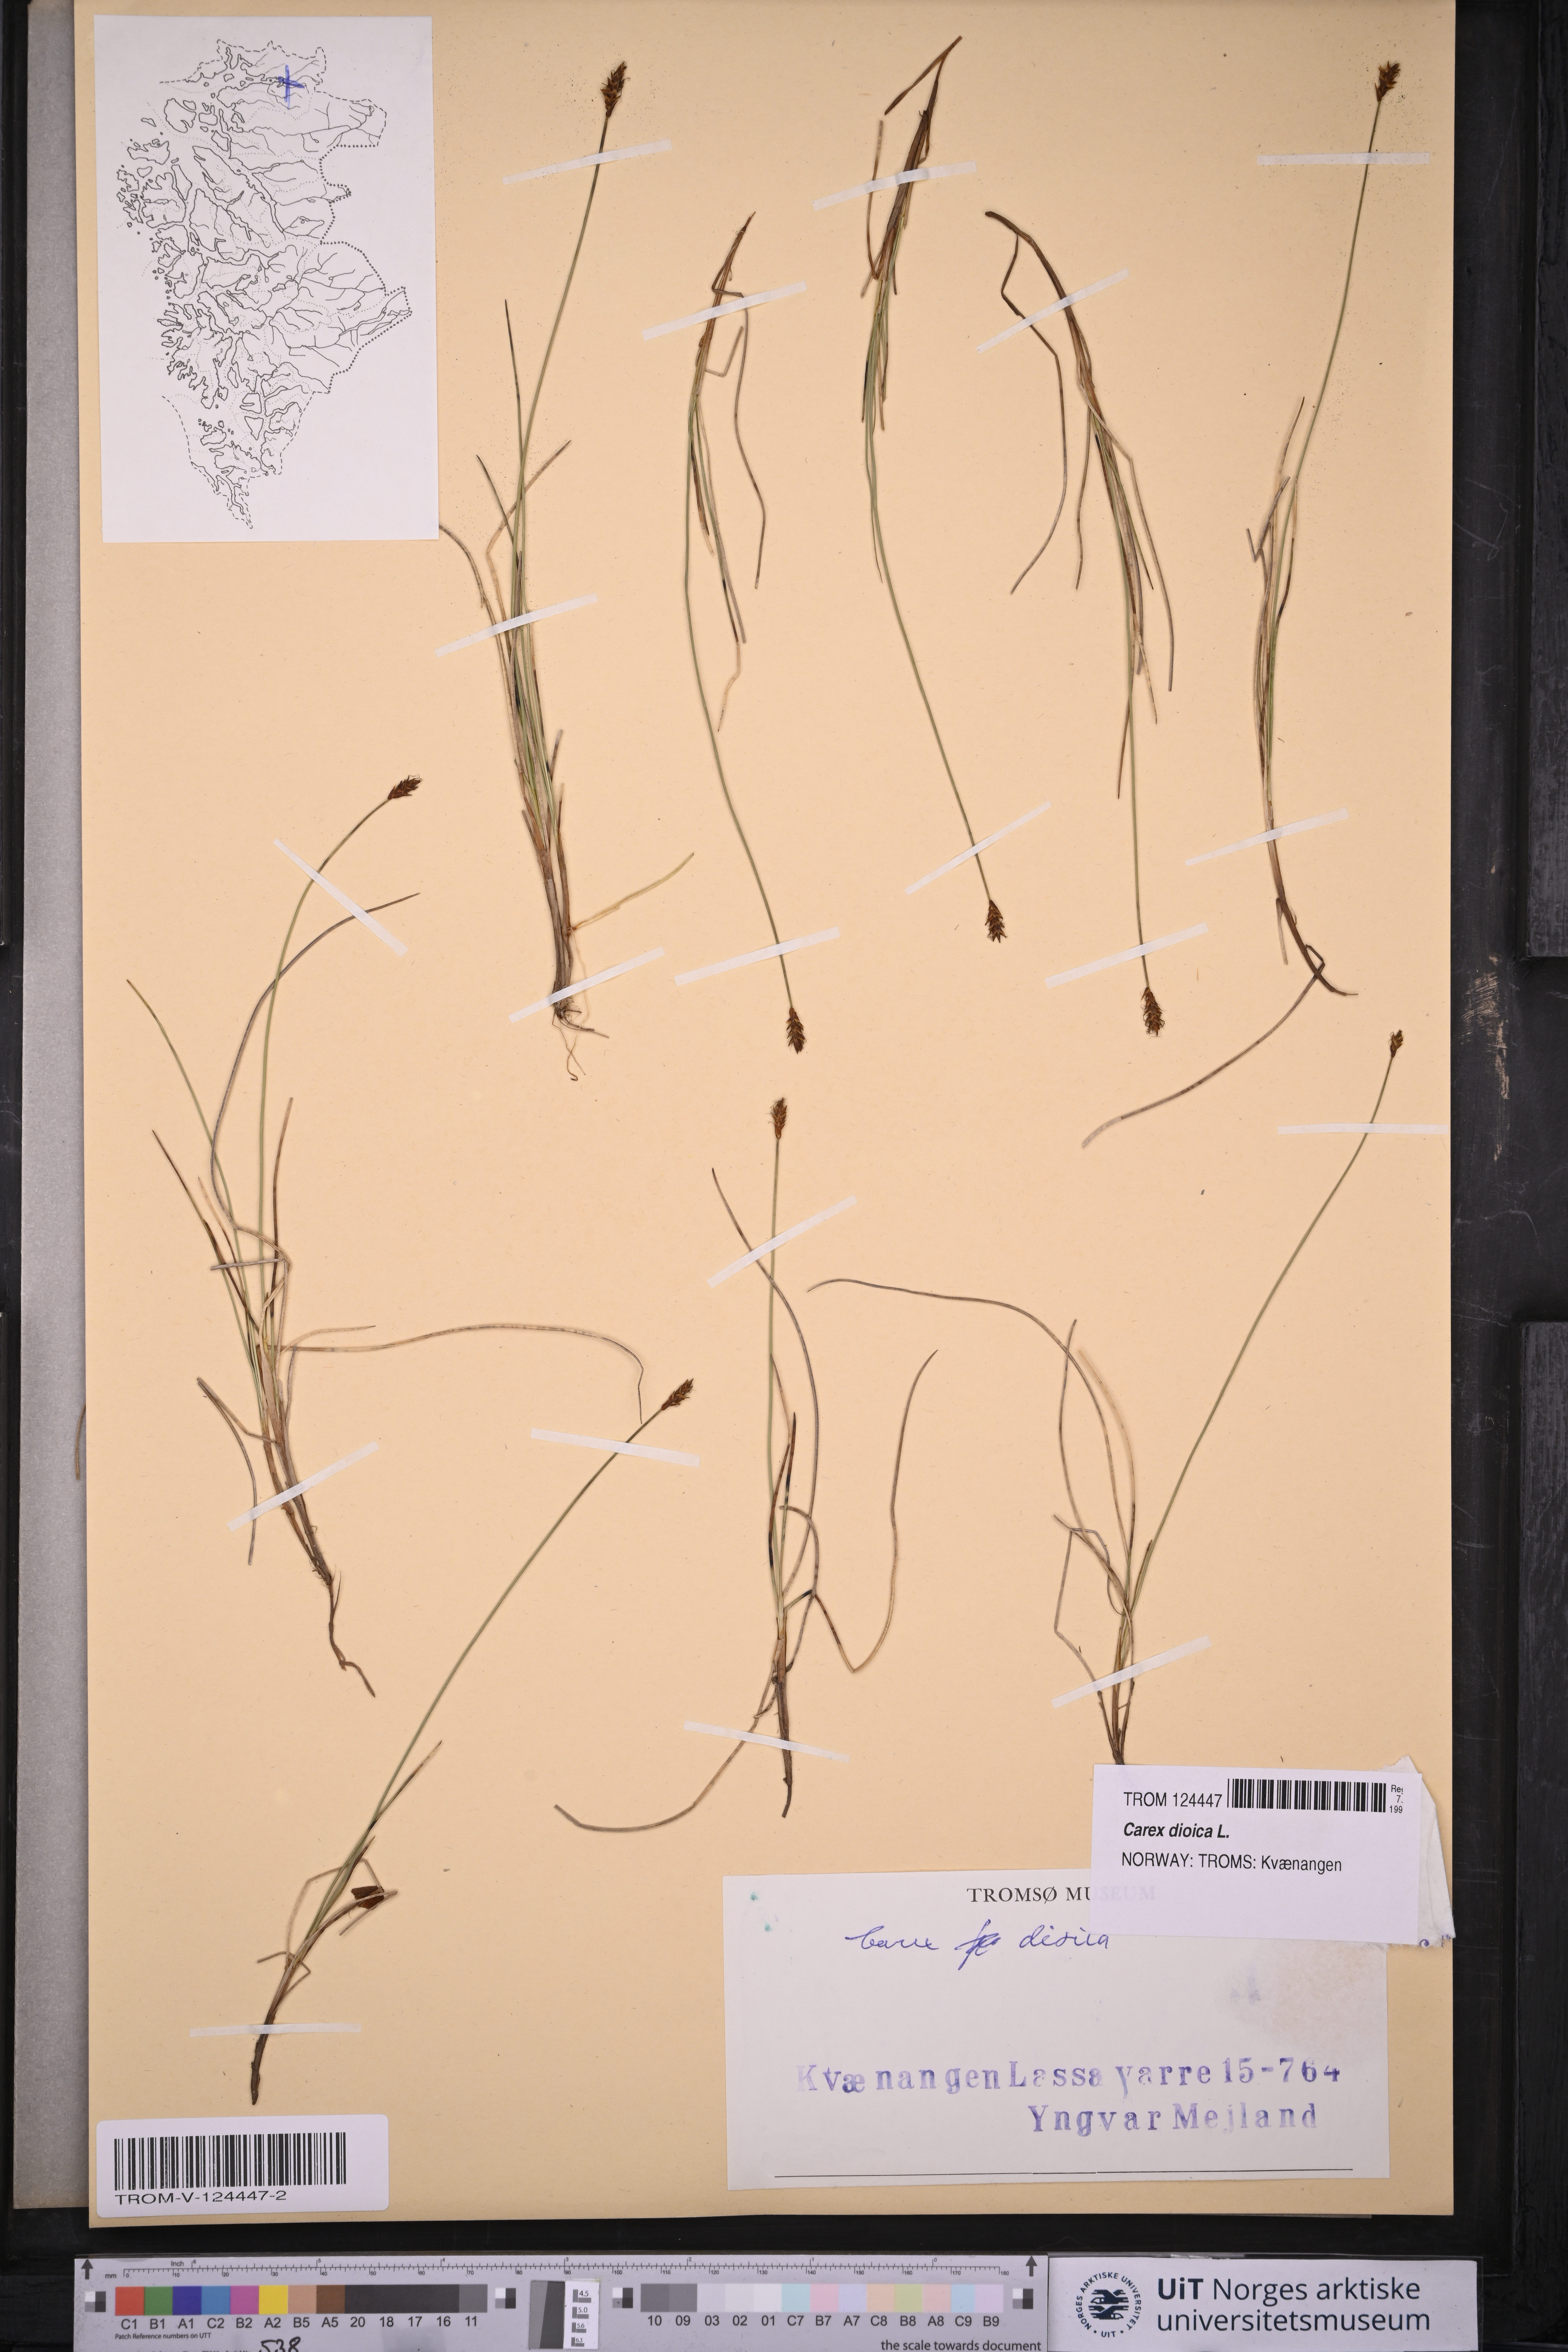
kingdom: Plantae
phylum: Tracheophyta
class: Liliopsida
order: Poales
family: Cyperaceae
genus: Carex
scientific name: Carex dioica
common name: Dioecious sedge
